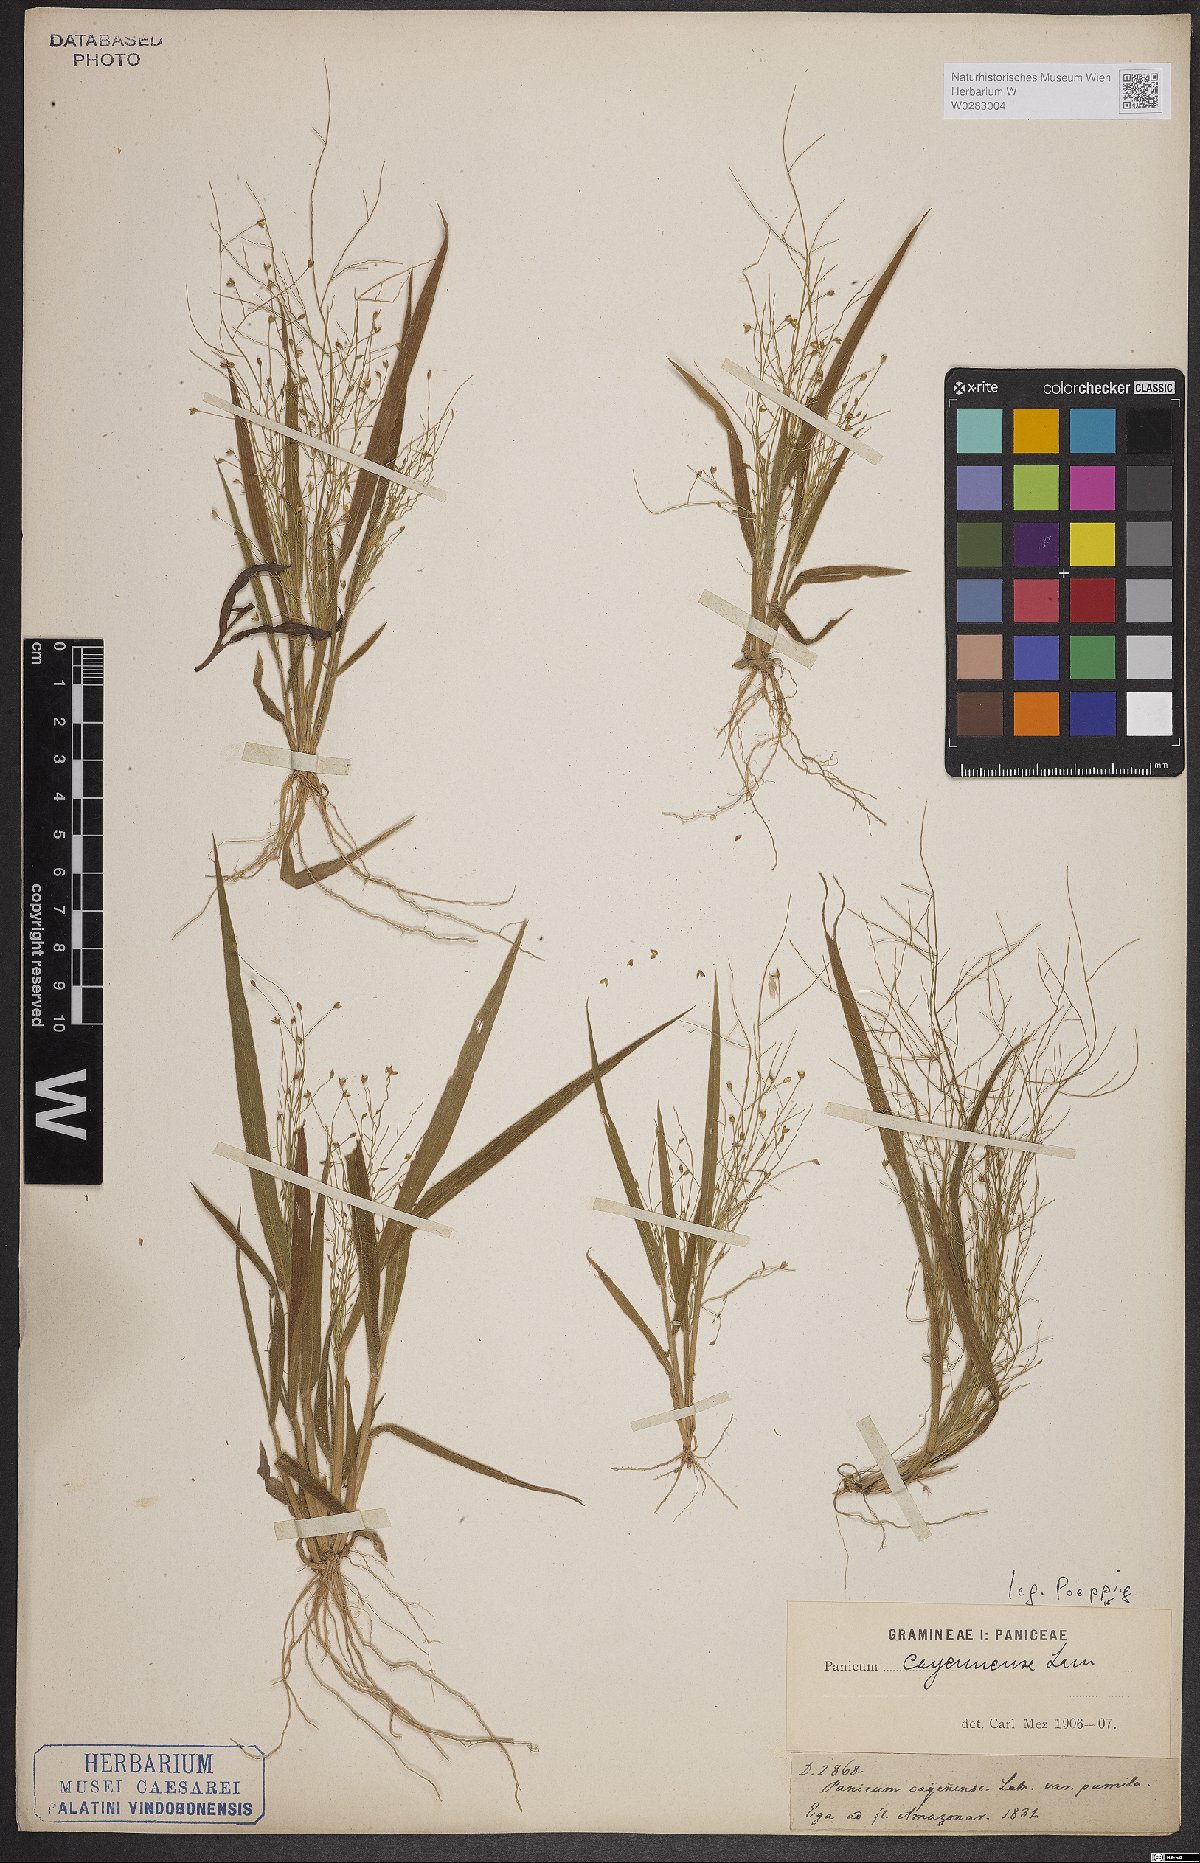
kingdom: Plantae
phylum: Tracheophyta
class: Liliopsida
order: Poales
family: Poaceae
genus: Panicum
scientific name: Panicum cayennense
